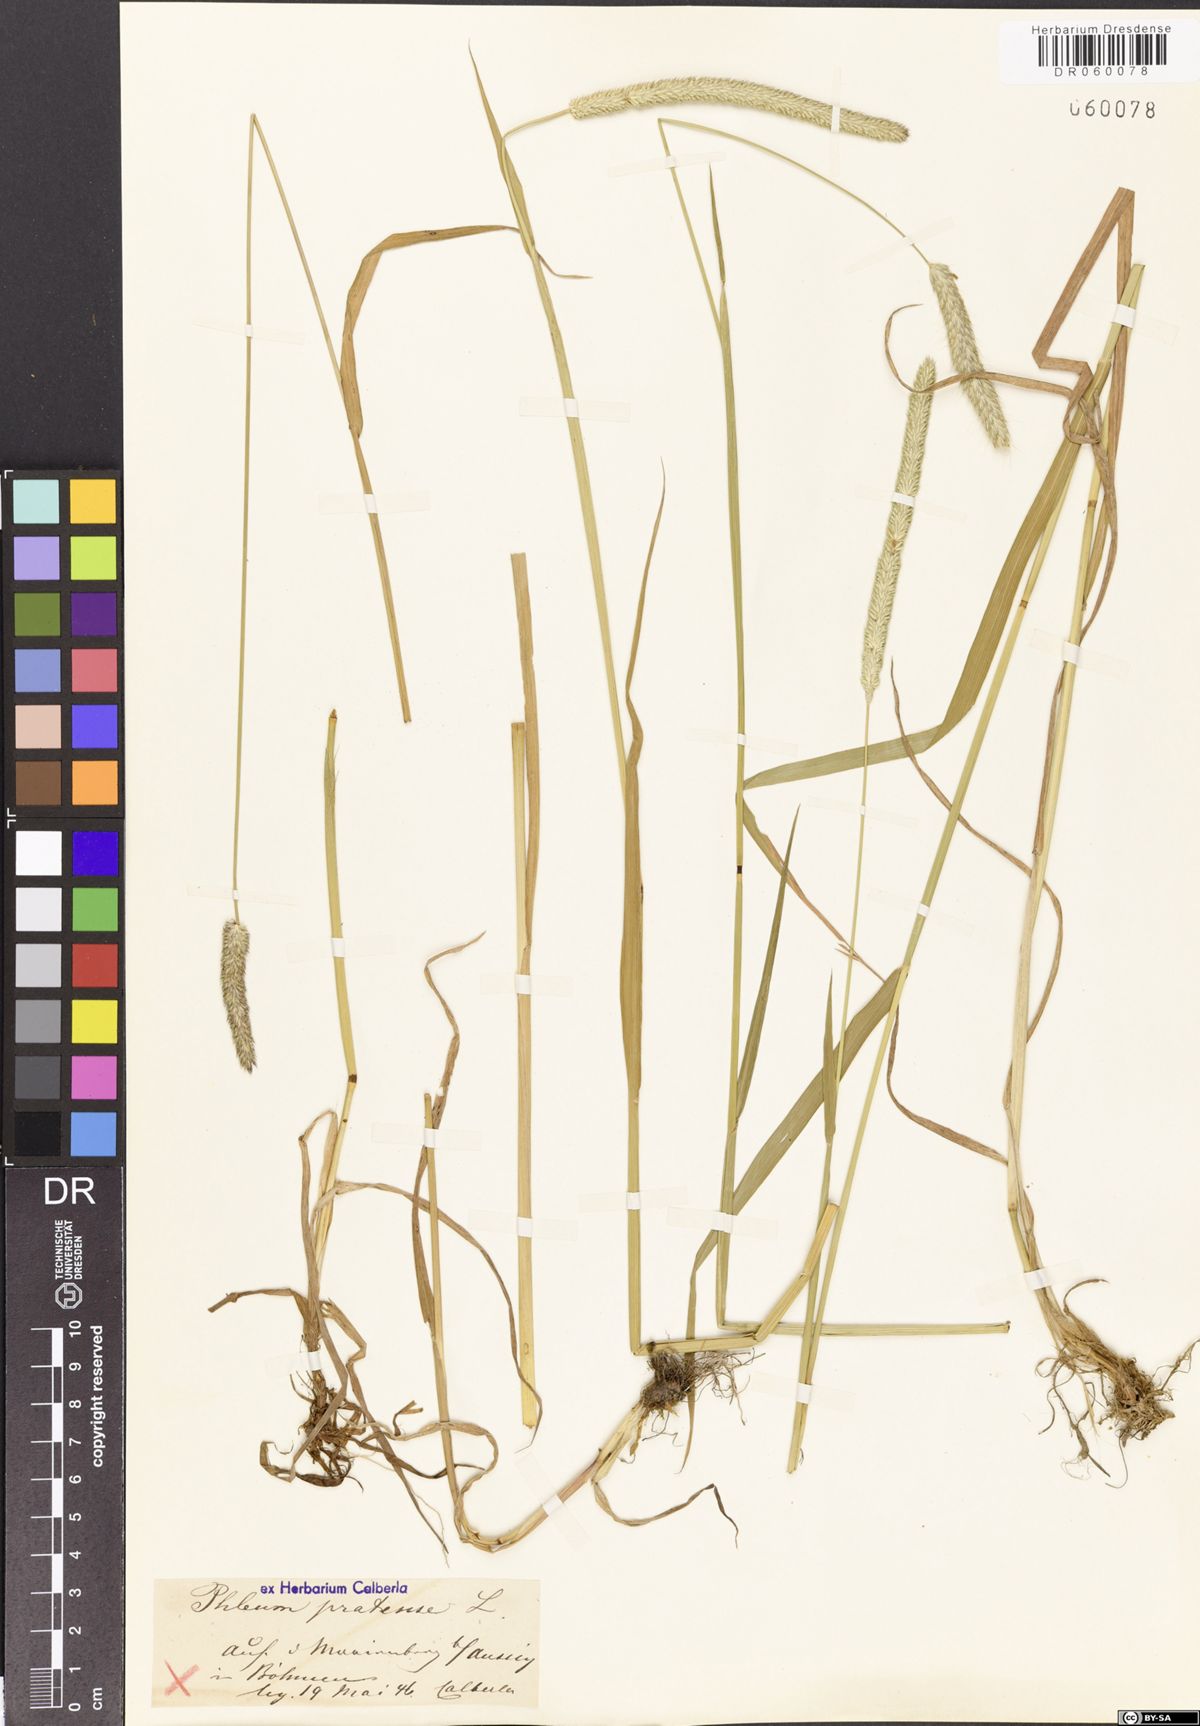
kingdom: Plantae
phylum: Tracheophyta
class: Liliopsida
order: Poales
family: Poaceae
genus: Phleum
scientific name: Phleum pratense
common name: Timothy grass
